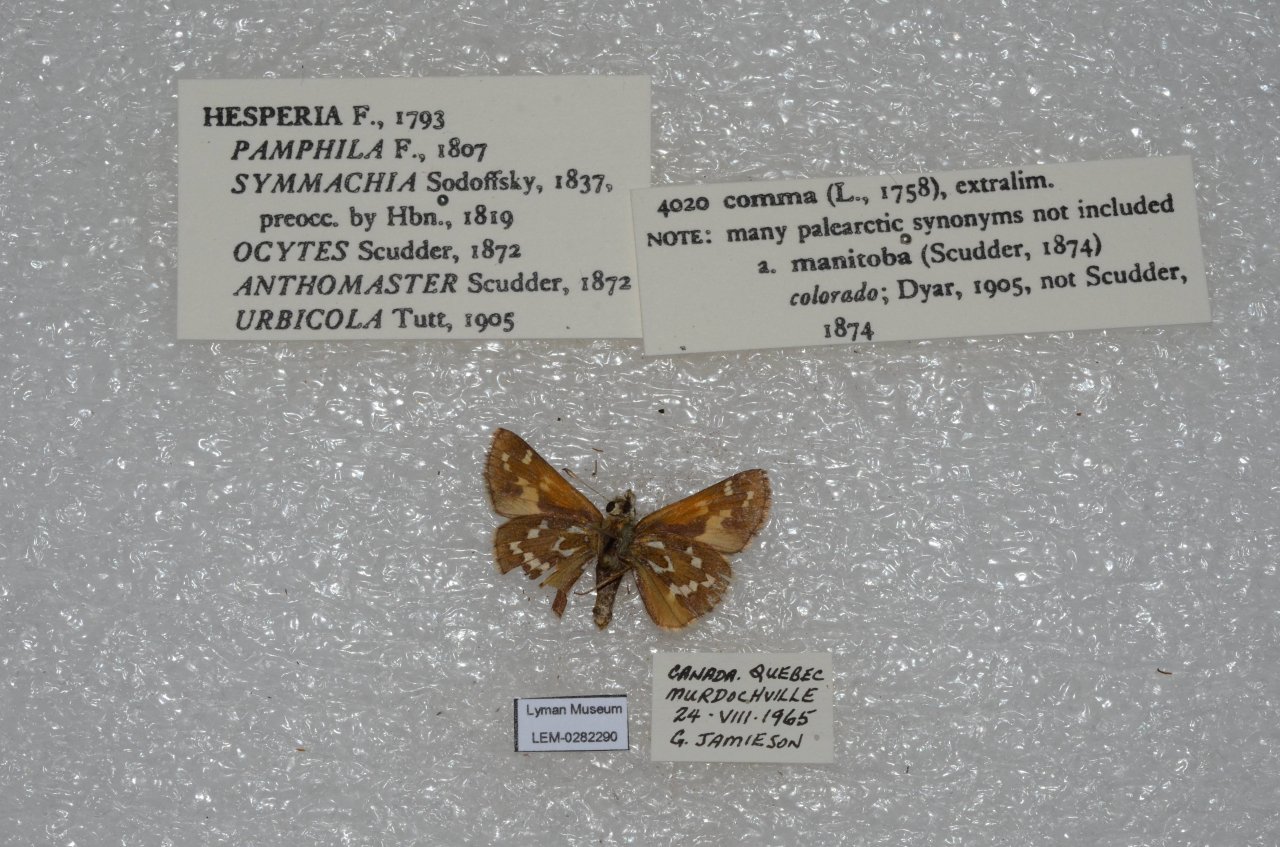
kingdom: Animalia
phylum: Arthropoda
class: Insecta
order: Lepidoptera
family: Hesperiidae
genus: Hesperia
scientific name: Hesperia comma
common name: Common Branded Skipper
